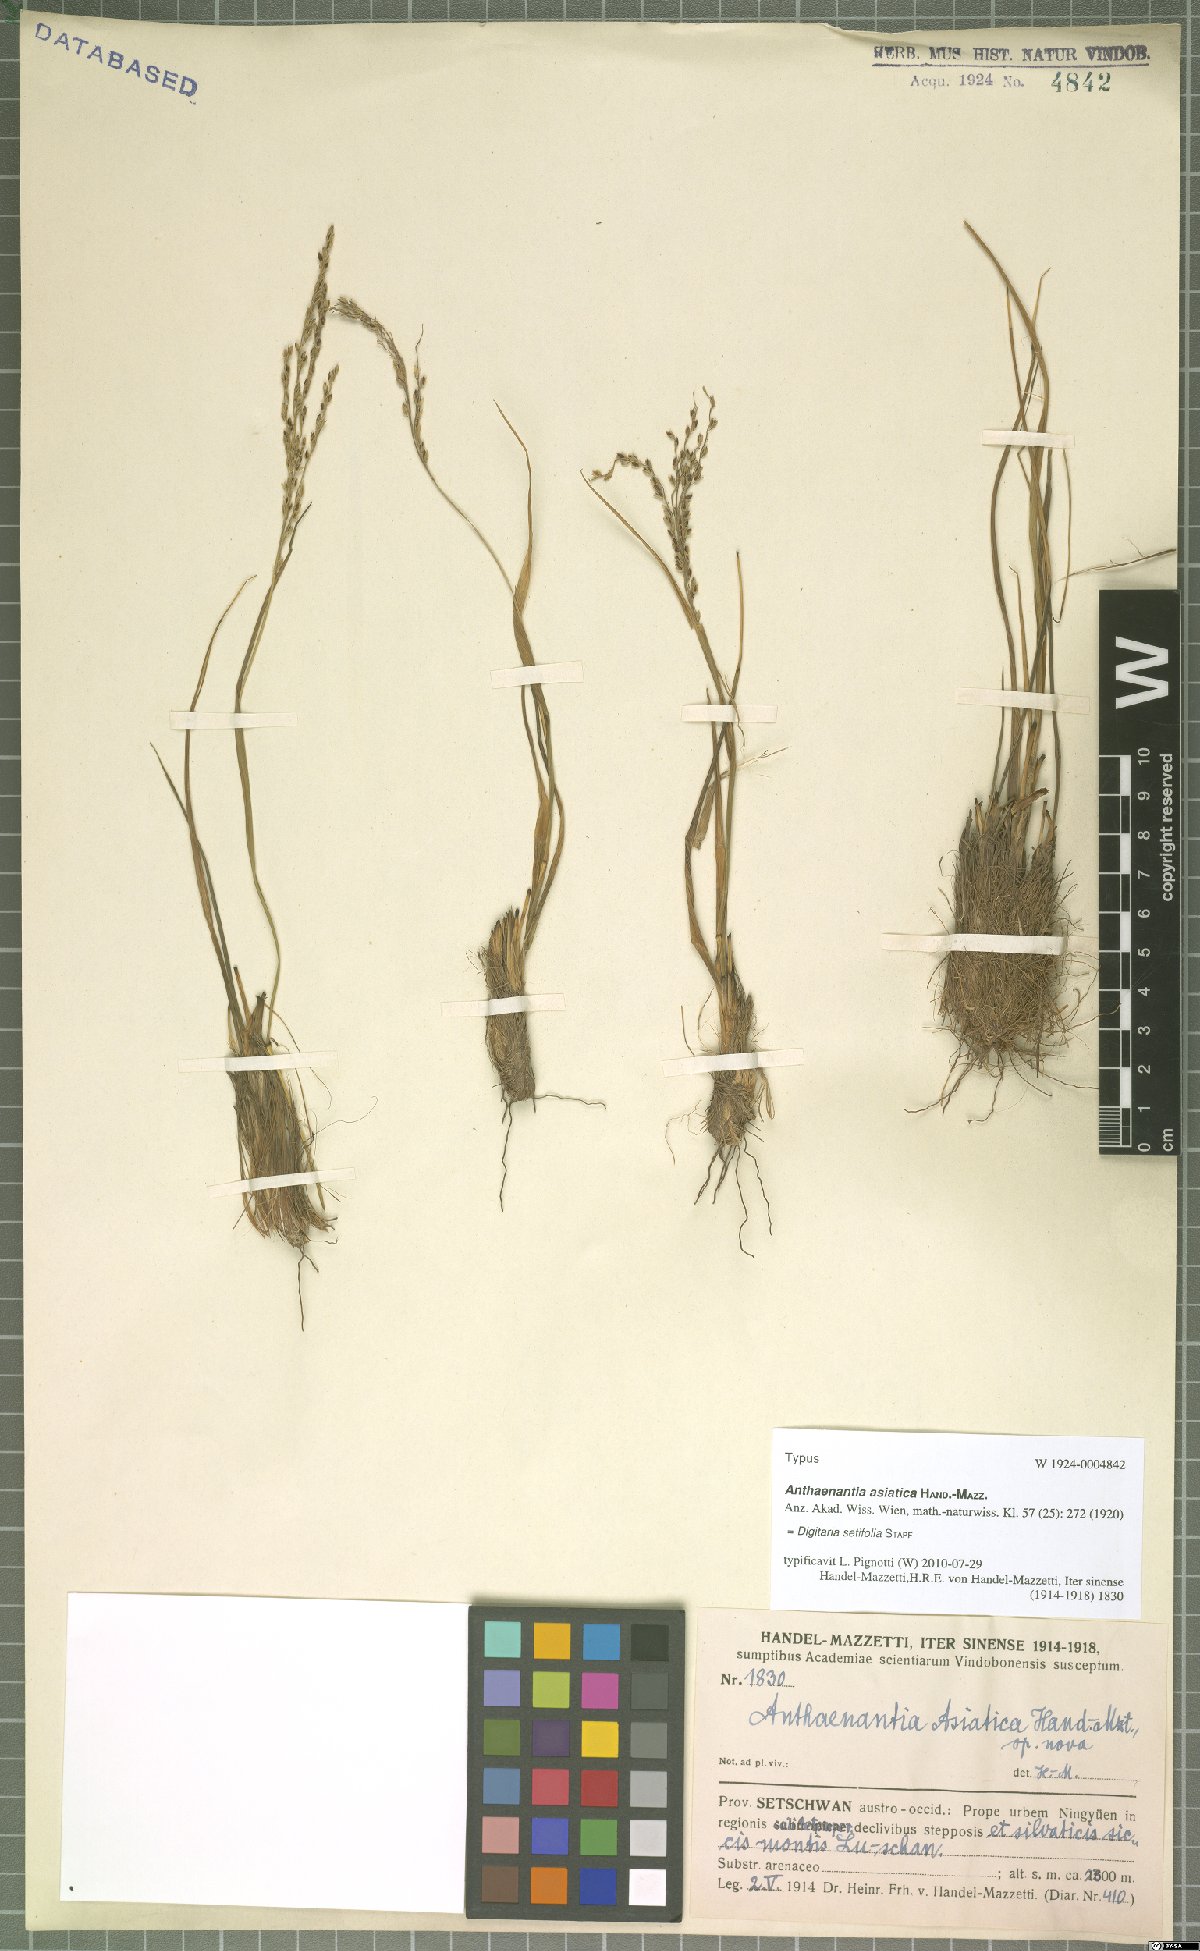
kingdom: Plantae
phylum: Tracheophyta
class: Liliopsida
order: Poales
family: Poaceae
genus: Digitaria
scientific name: Digitaria setifolia
